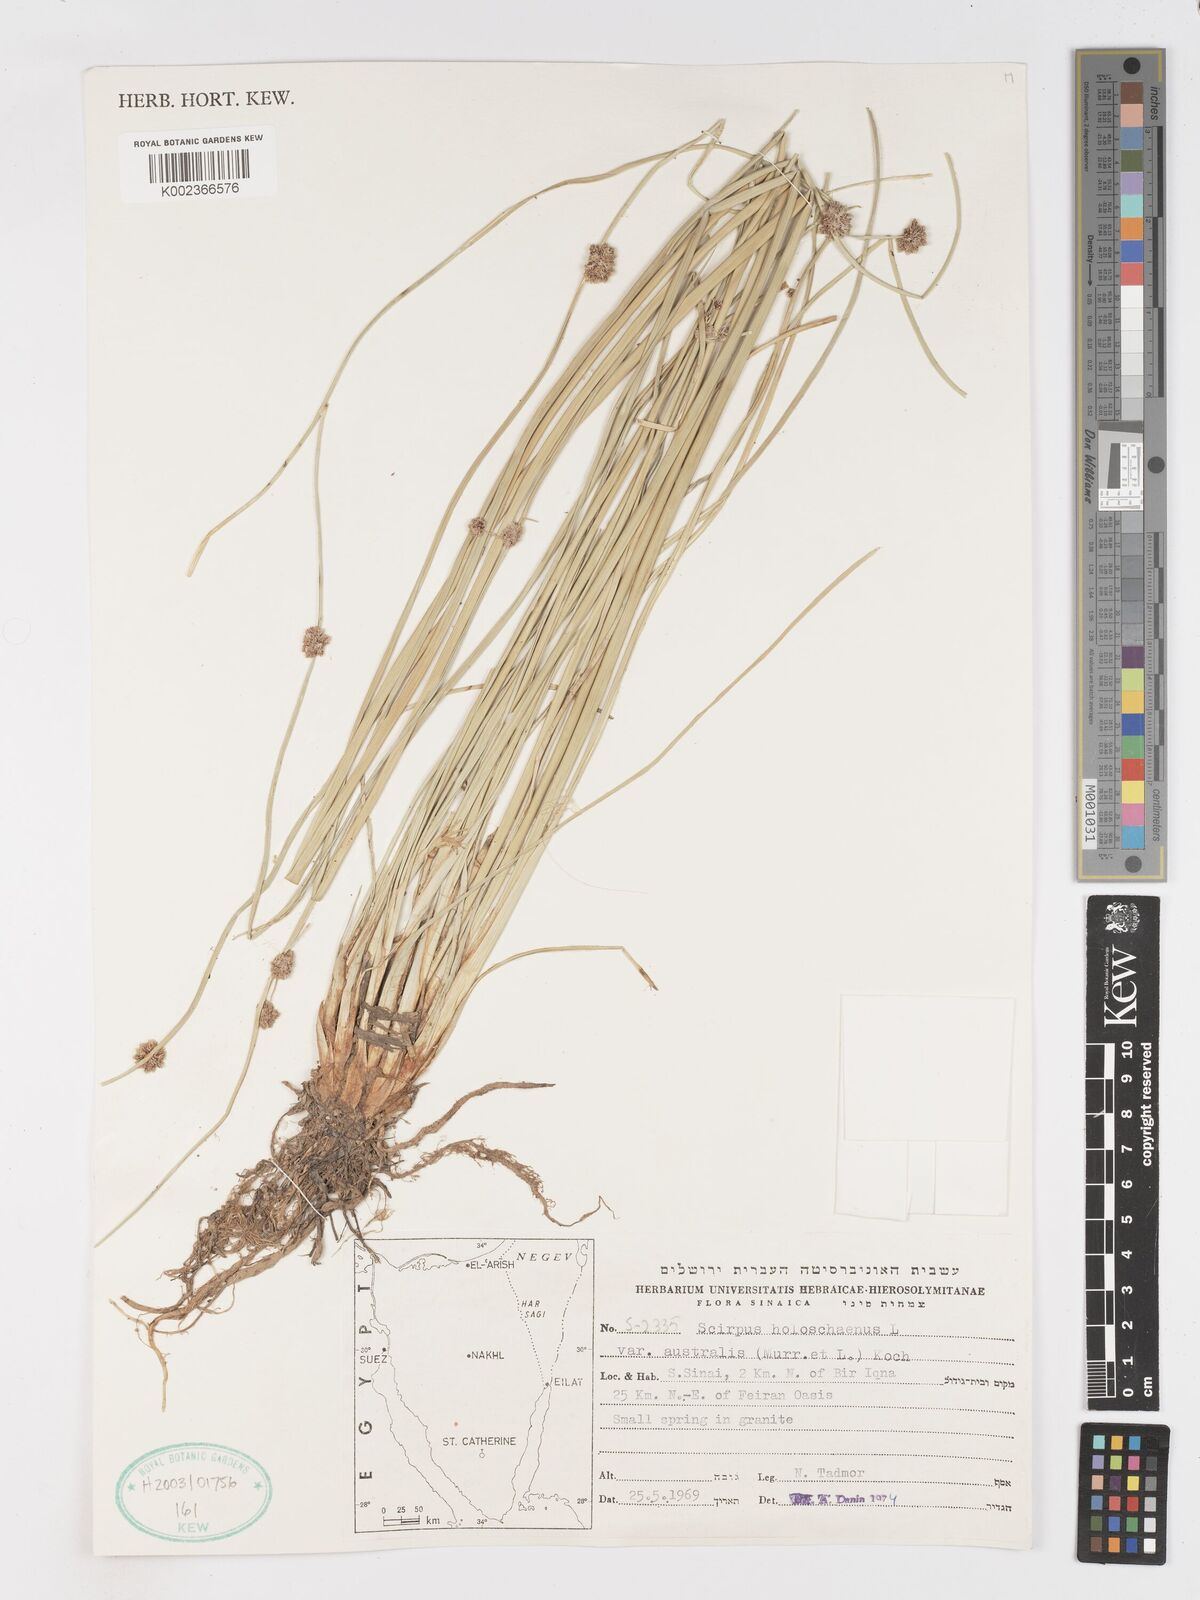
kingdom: Plantae
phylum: Tracheophyta
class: Liliopsida
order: Poales
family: Cyperaceae
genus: Scirpoides
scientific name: Scirpoides holoschoenus
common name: Round-headed club-rush
